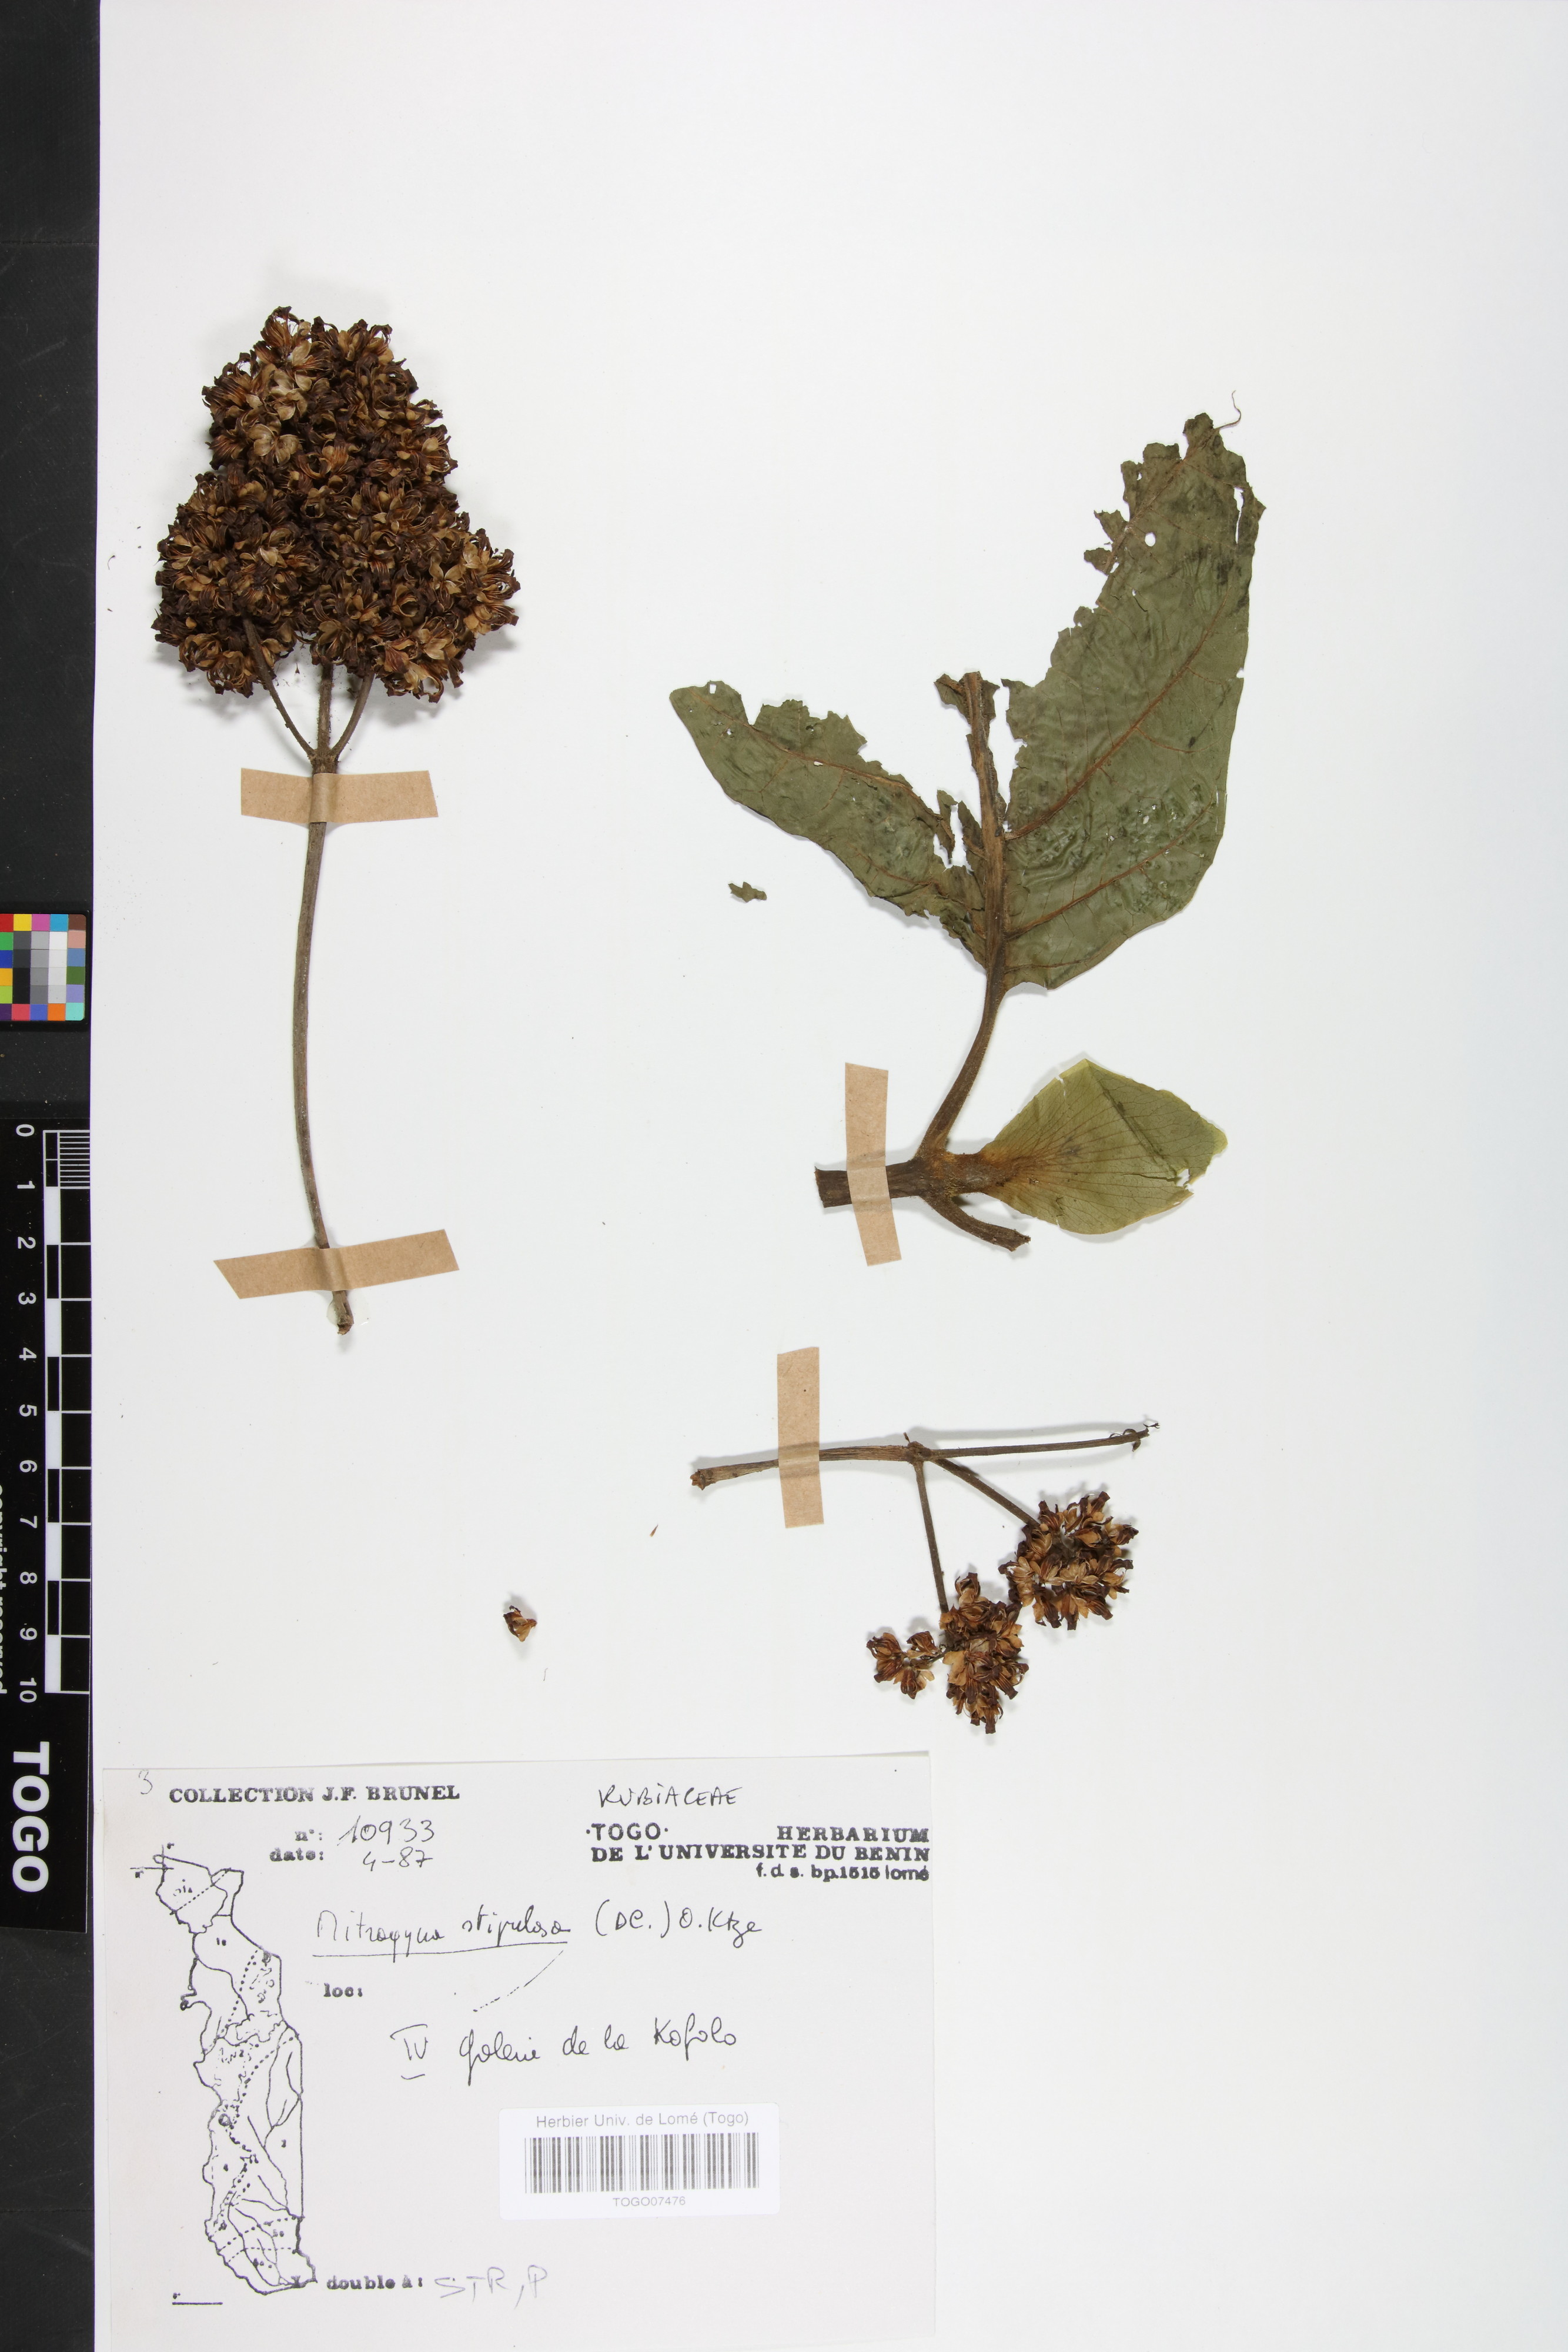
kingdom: Plantae
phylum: Tracheophyta
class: Magnoliopsida
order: Gentianales
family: Rubiaceae
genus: Mitragyna
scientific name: Mitragyna stipulosa
